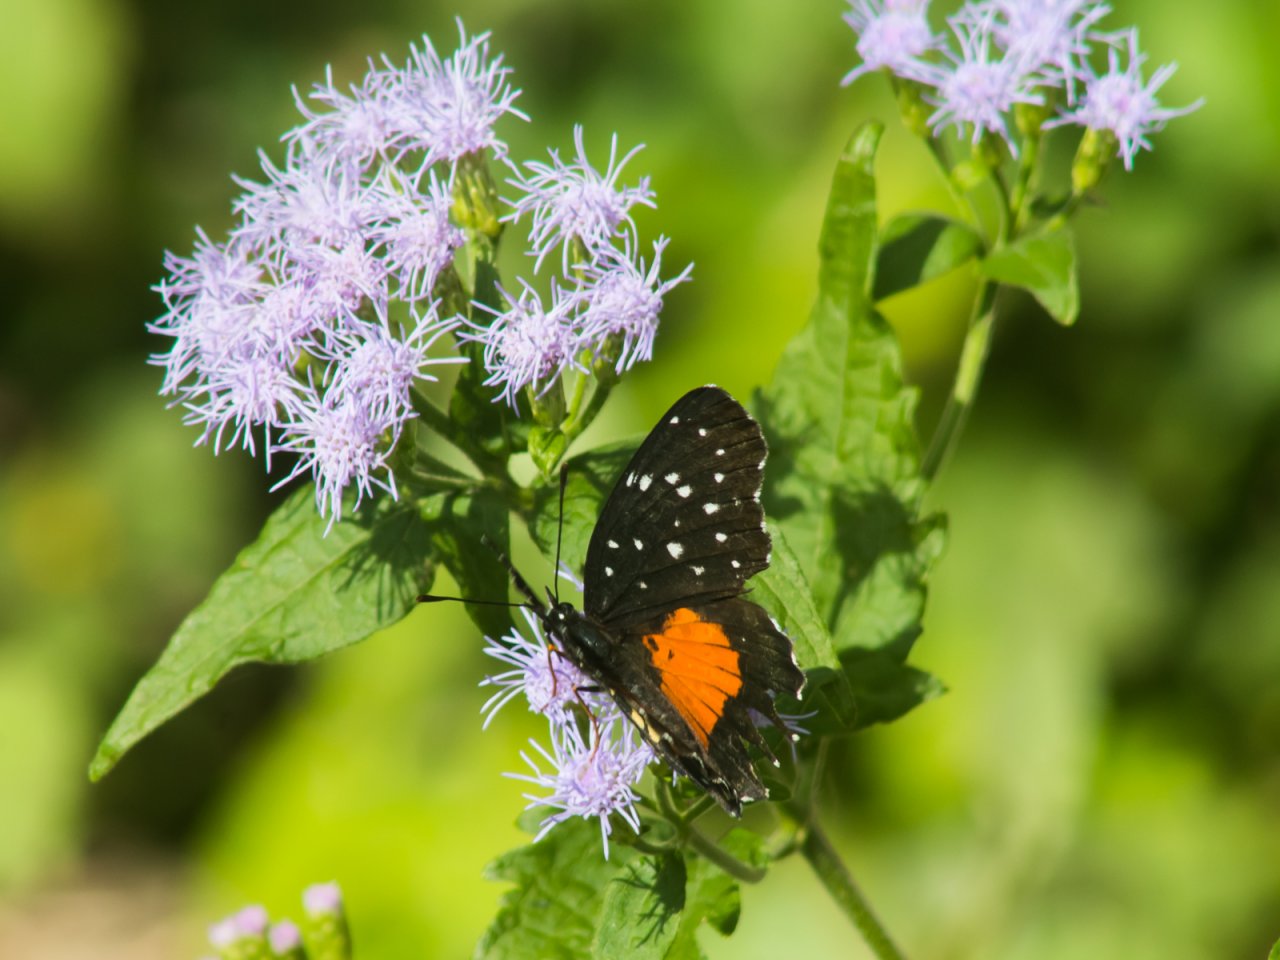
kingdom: Animalia
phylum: Arthropoda
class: Insecta
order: Lepidoptera
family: Nymphalidae
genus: Chlosyne
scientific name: Chlosyne janais
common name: Crimson Patch
